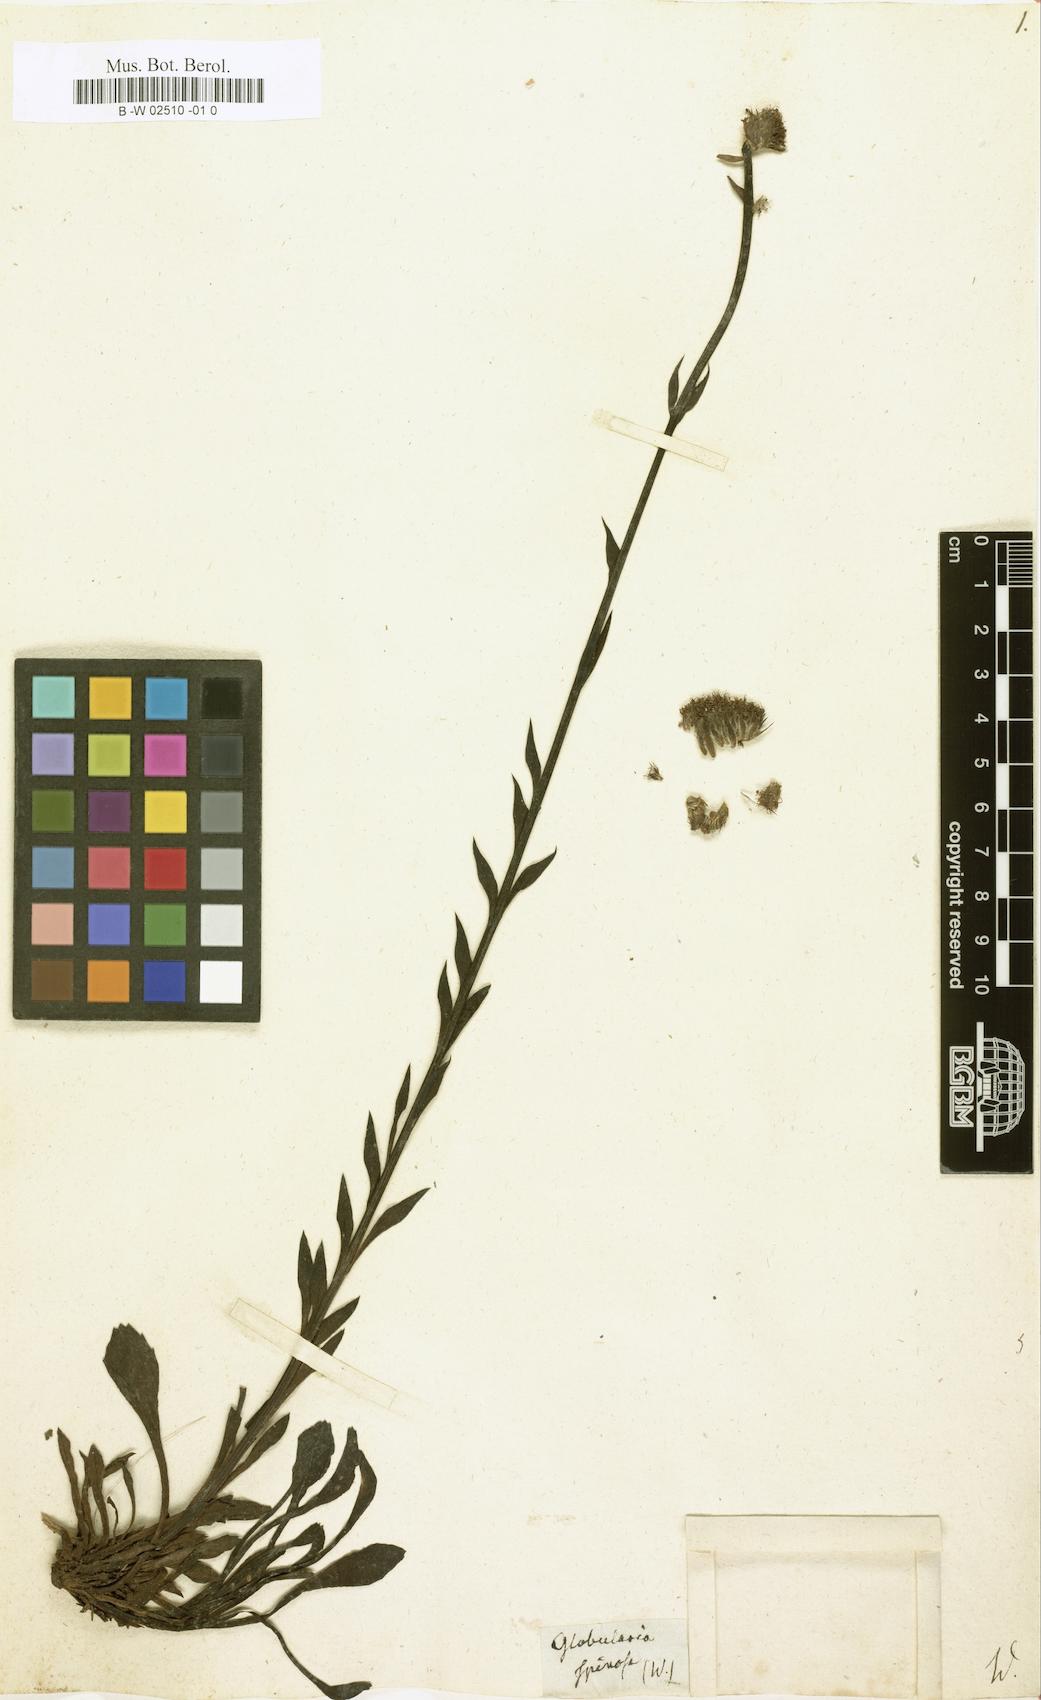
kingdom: Plantae
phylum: Tracheophyta
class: Magnoliopsida
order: Lamiales
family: Plantaginaceae
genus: Globularia
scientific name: Globularia spinosa
